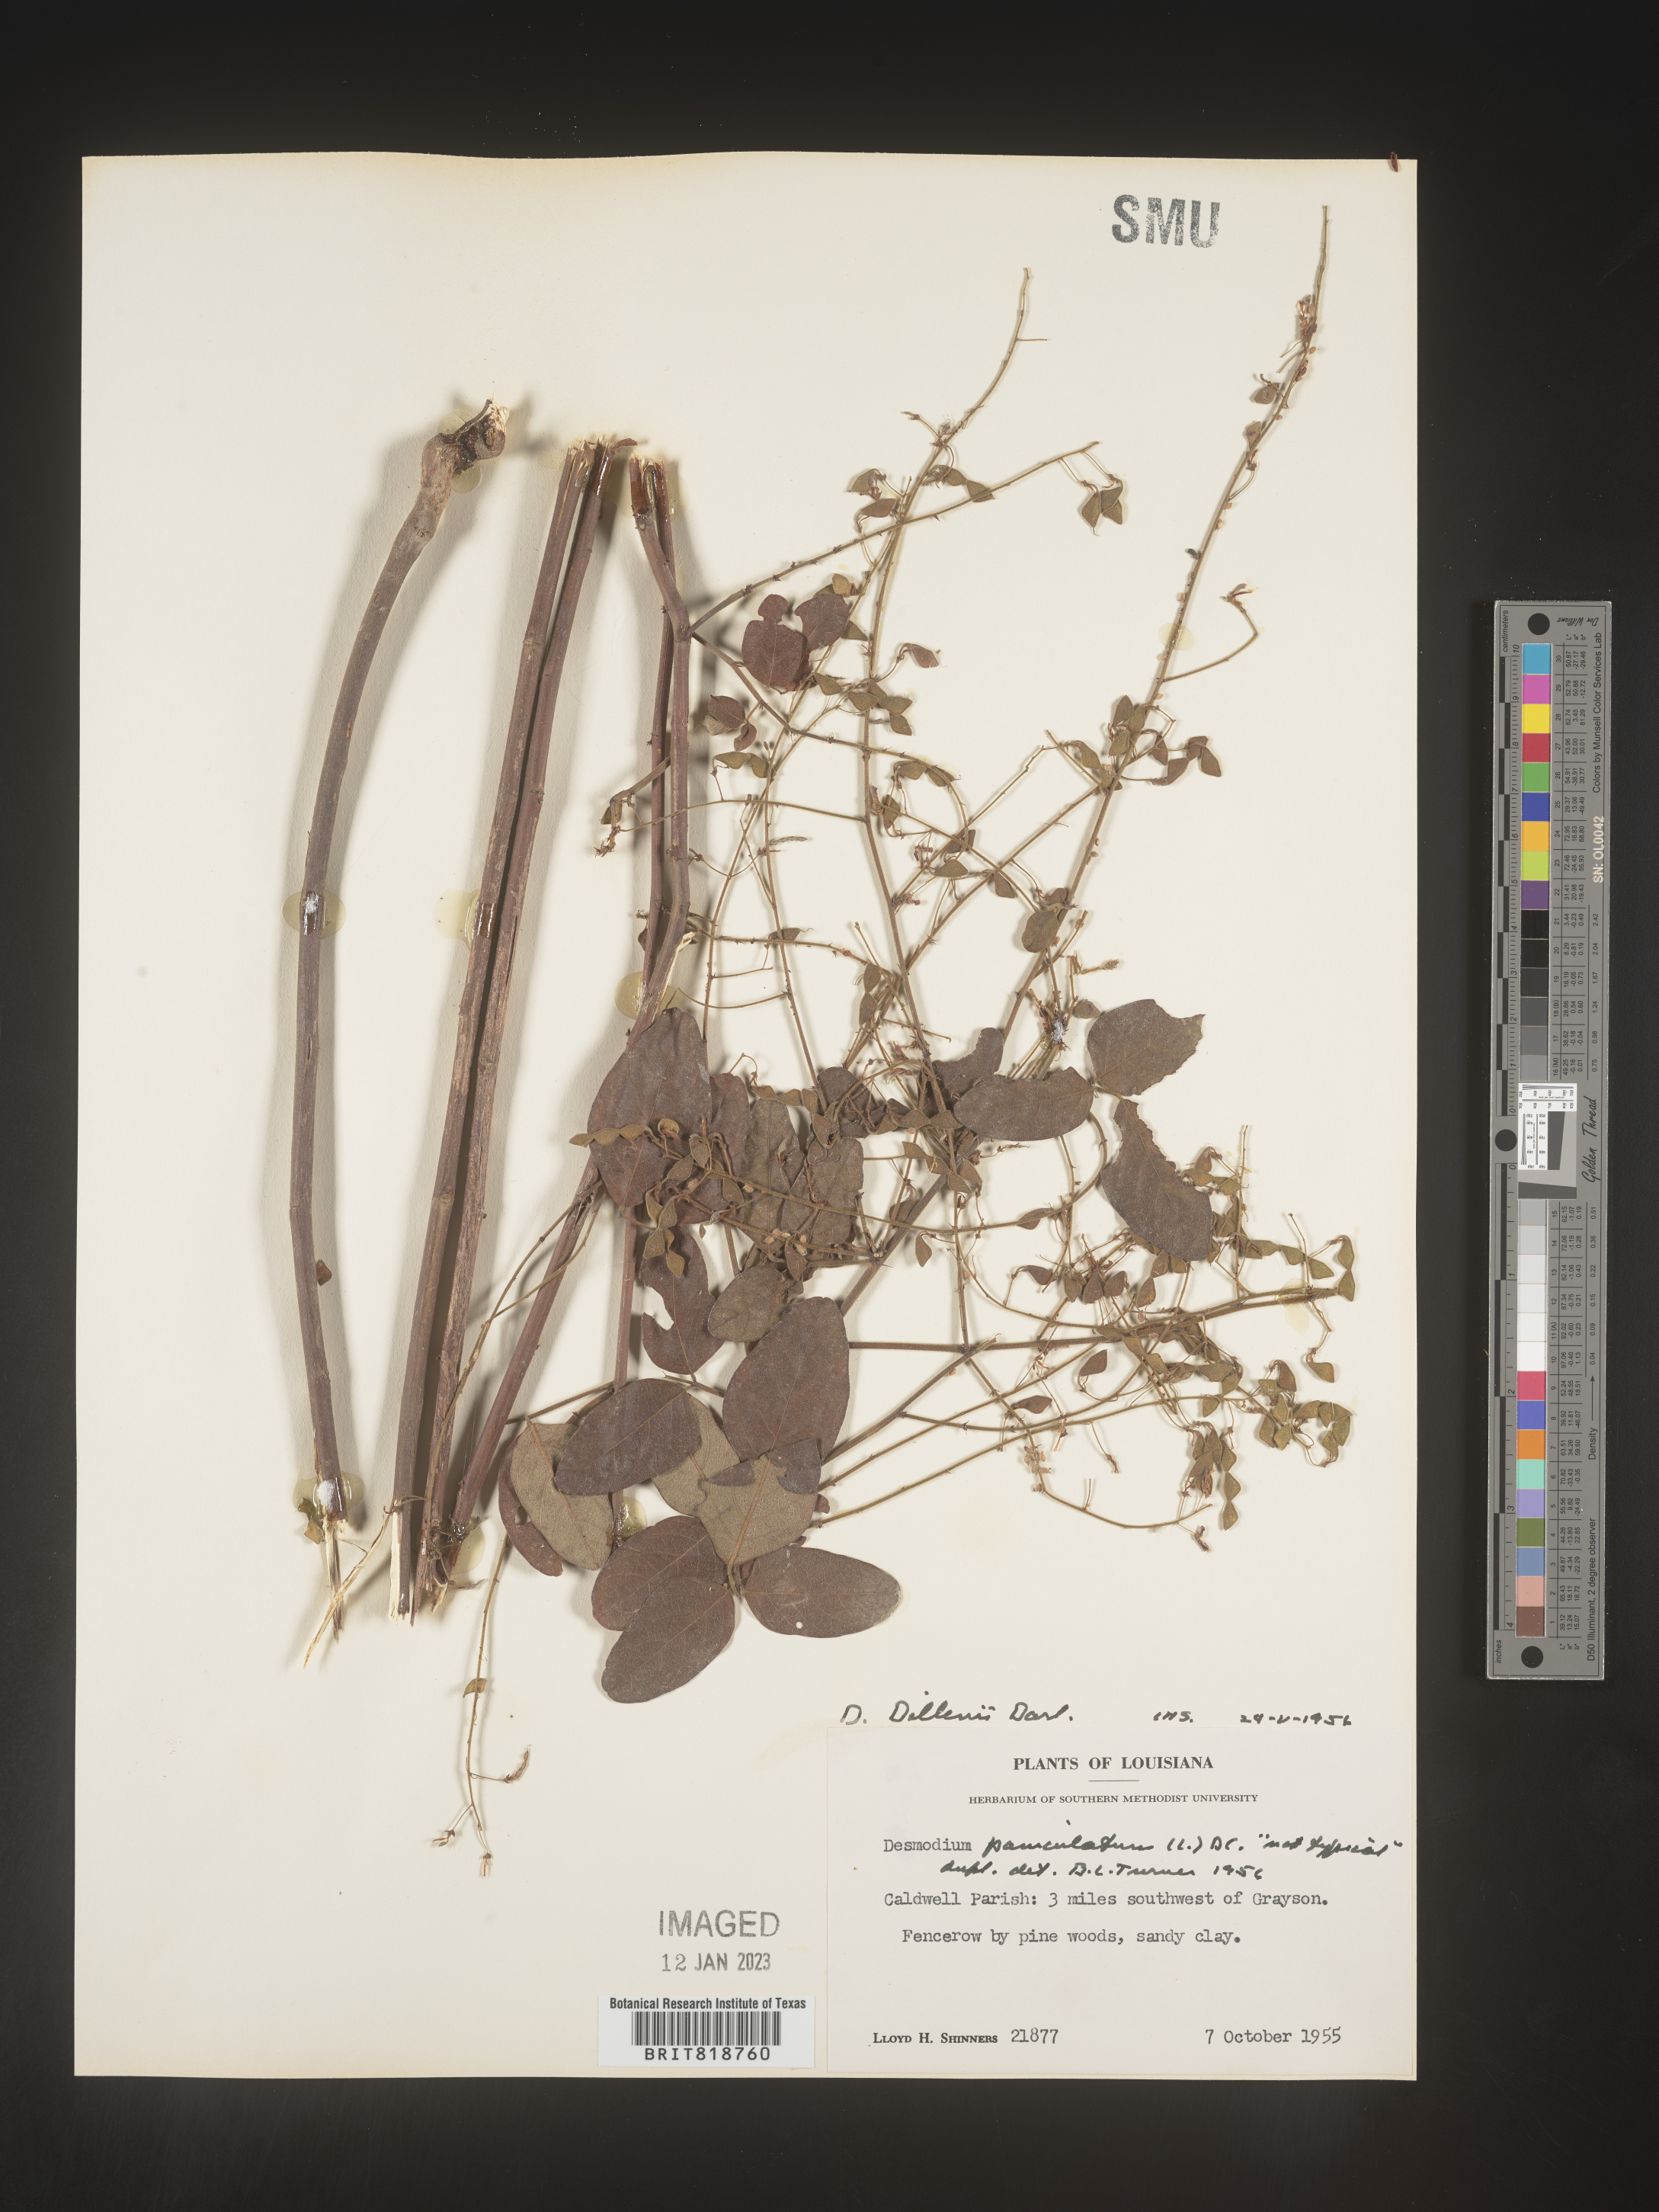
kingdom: Plantae
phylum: Tracheophyta
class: Magnoliopsida
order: Fabales
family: Fabaceae
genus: Desmodium
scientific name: Desmodium perplexum
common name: Perplexed tick trefoil
